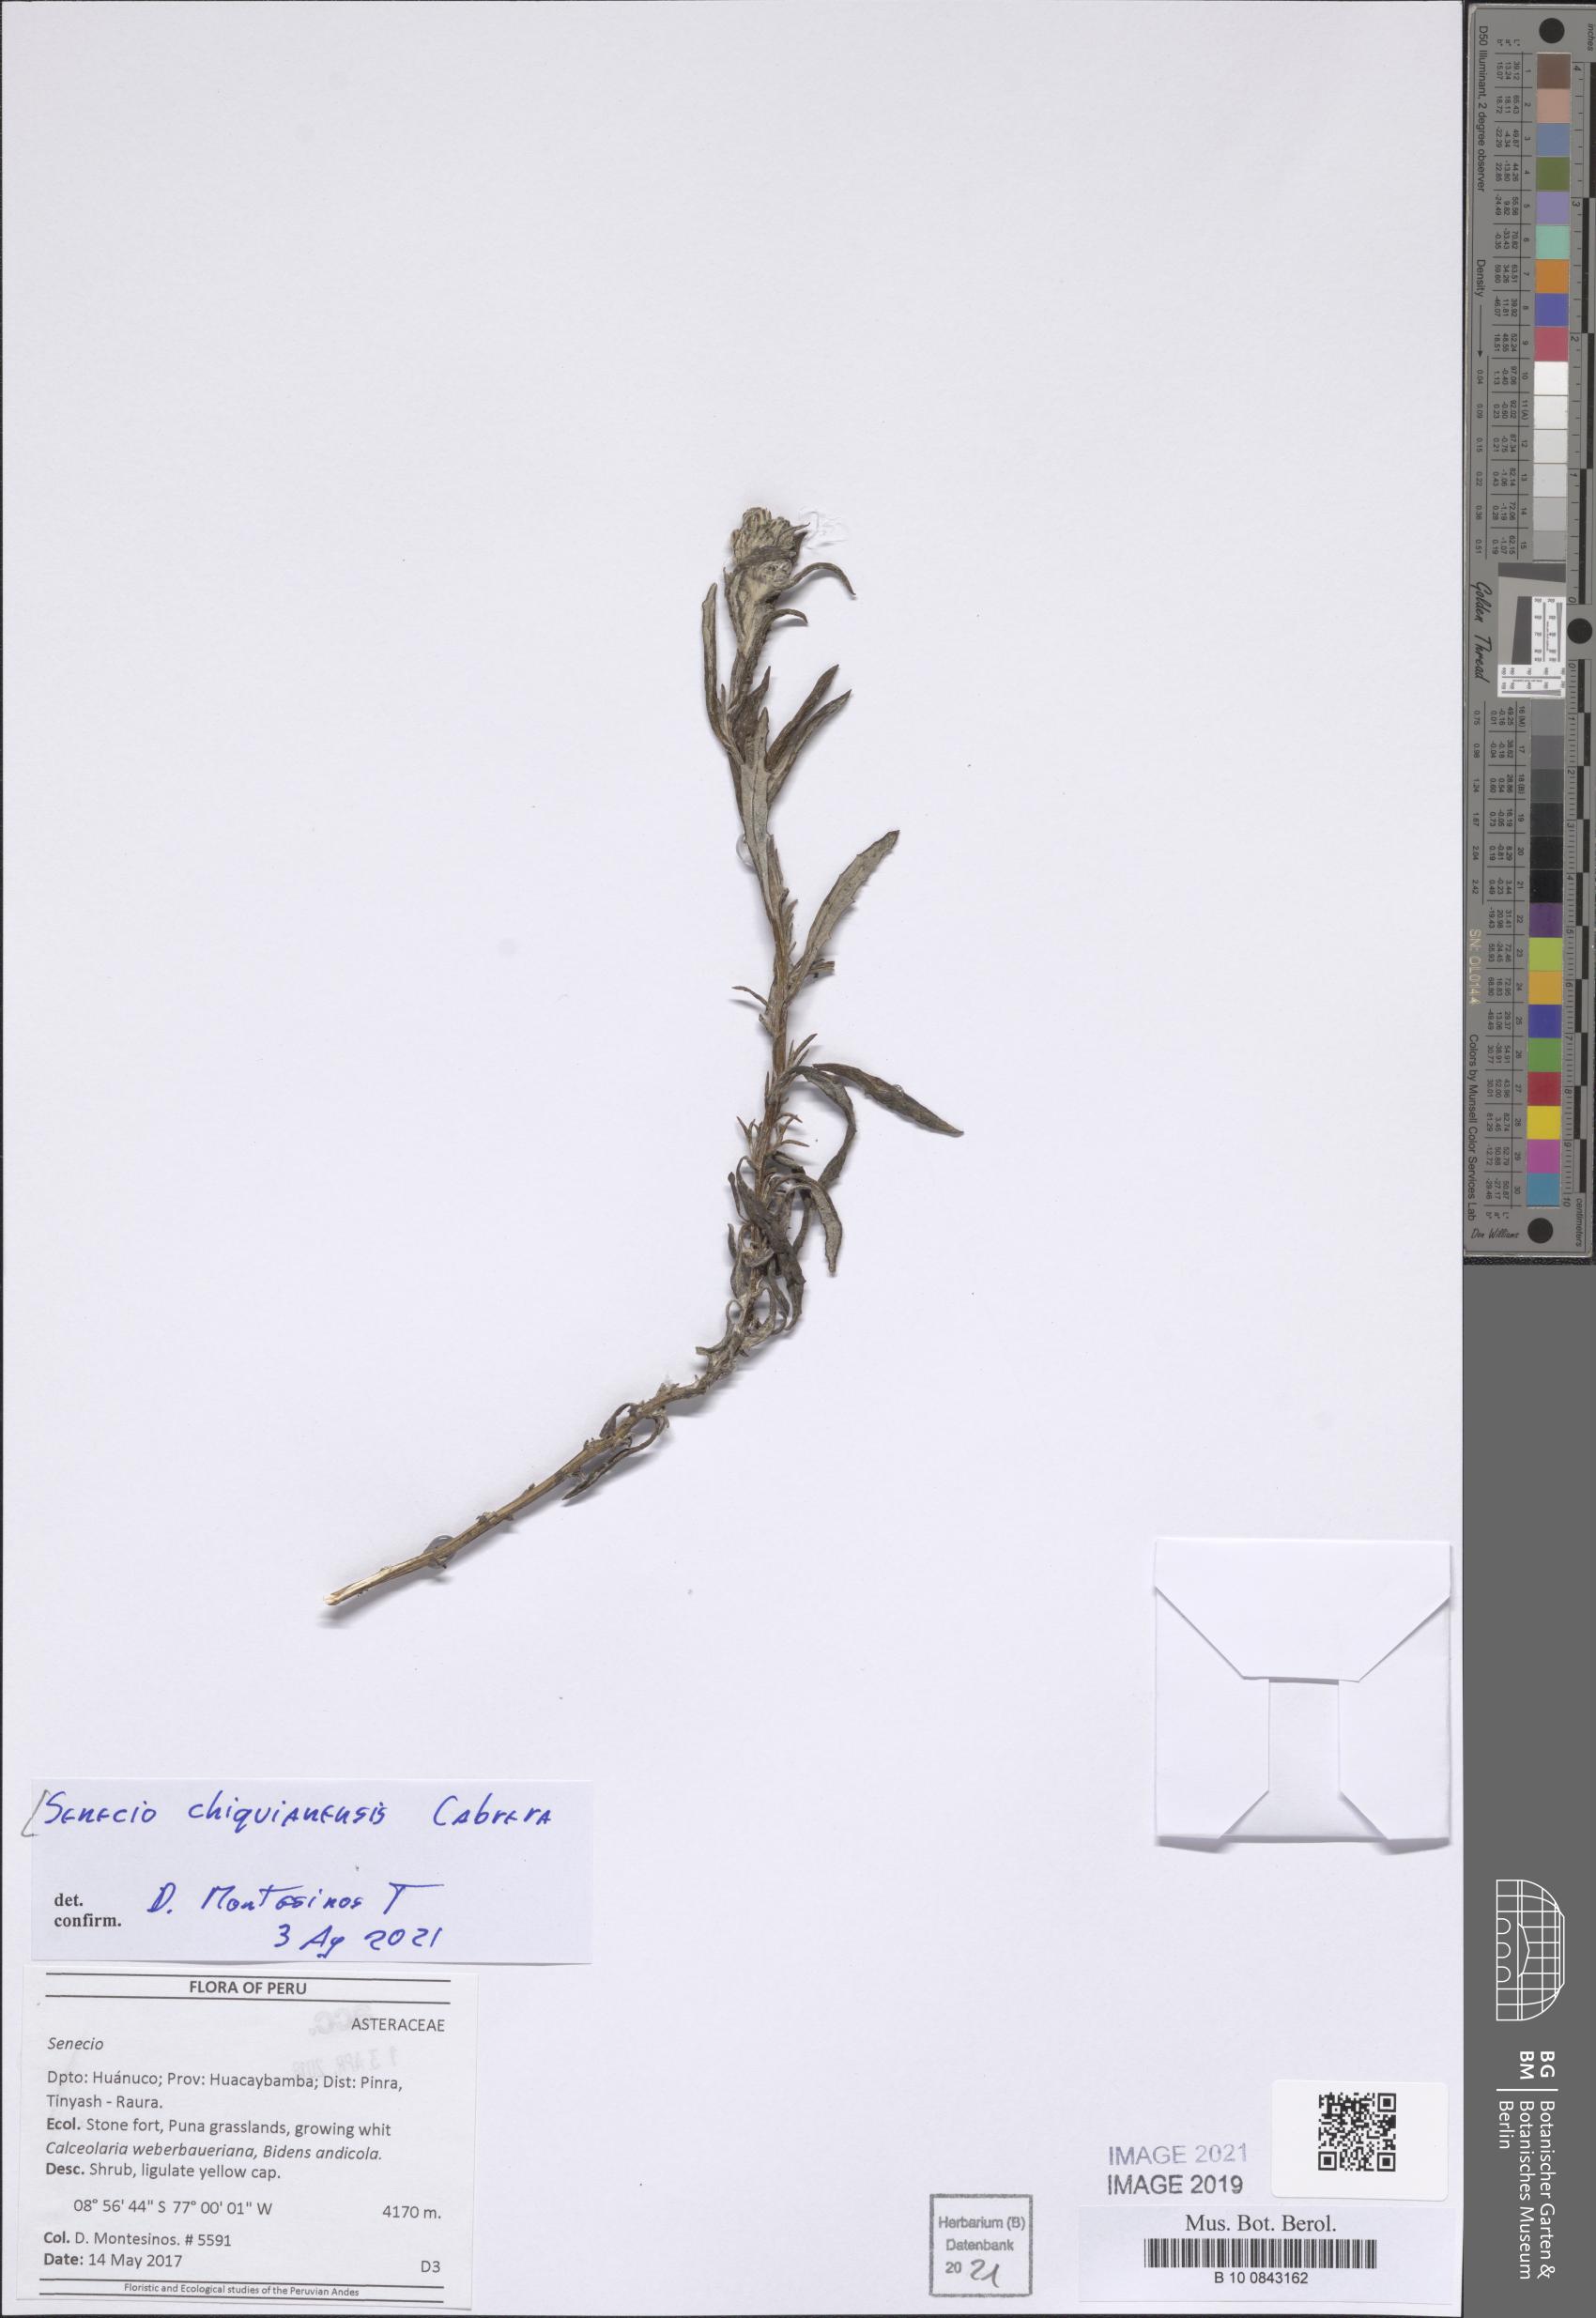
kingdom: Plantae
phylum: Tracheophyta
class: Magnoliopsida
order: Asterales
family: Asteraceae
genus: Senecio
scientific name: Senecio chiquianensis
